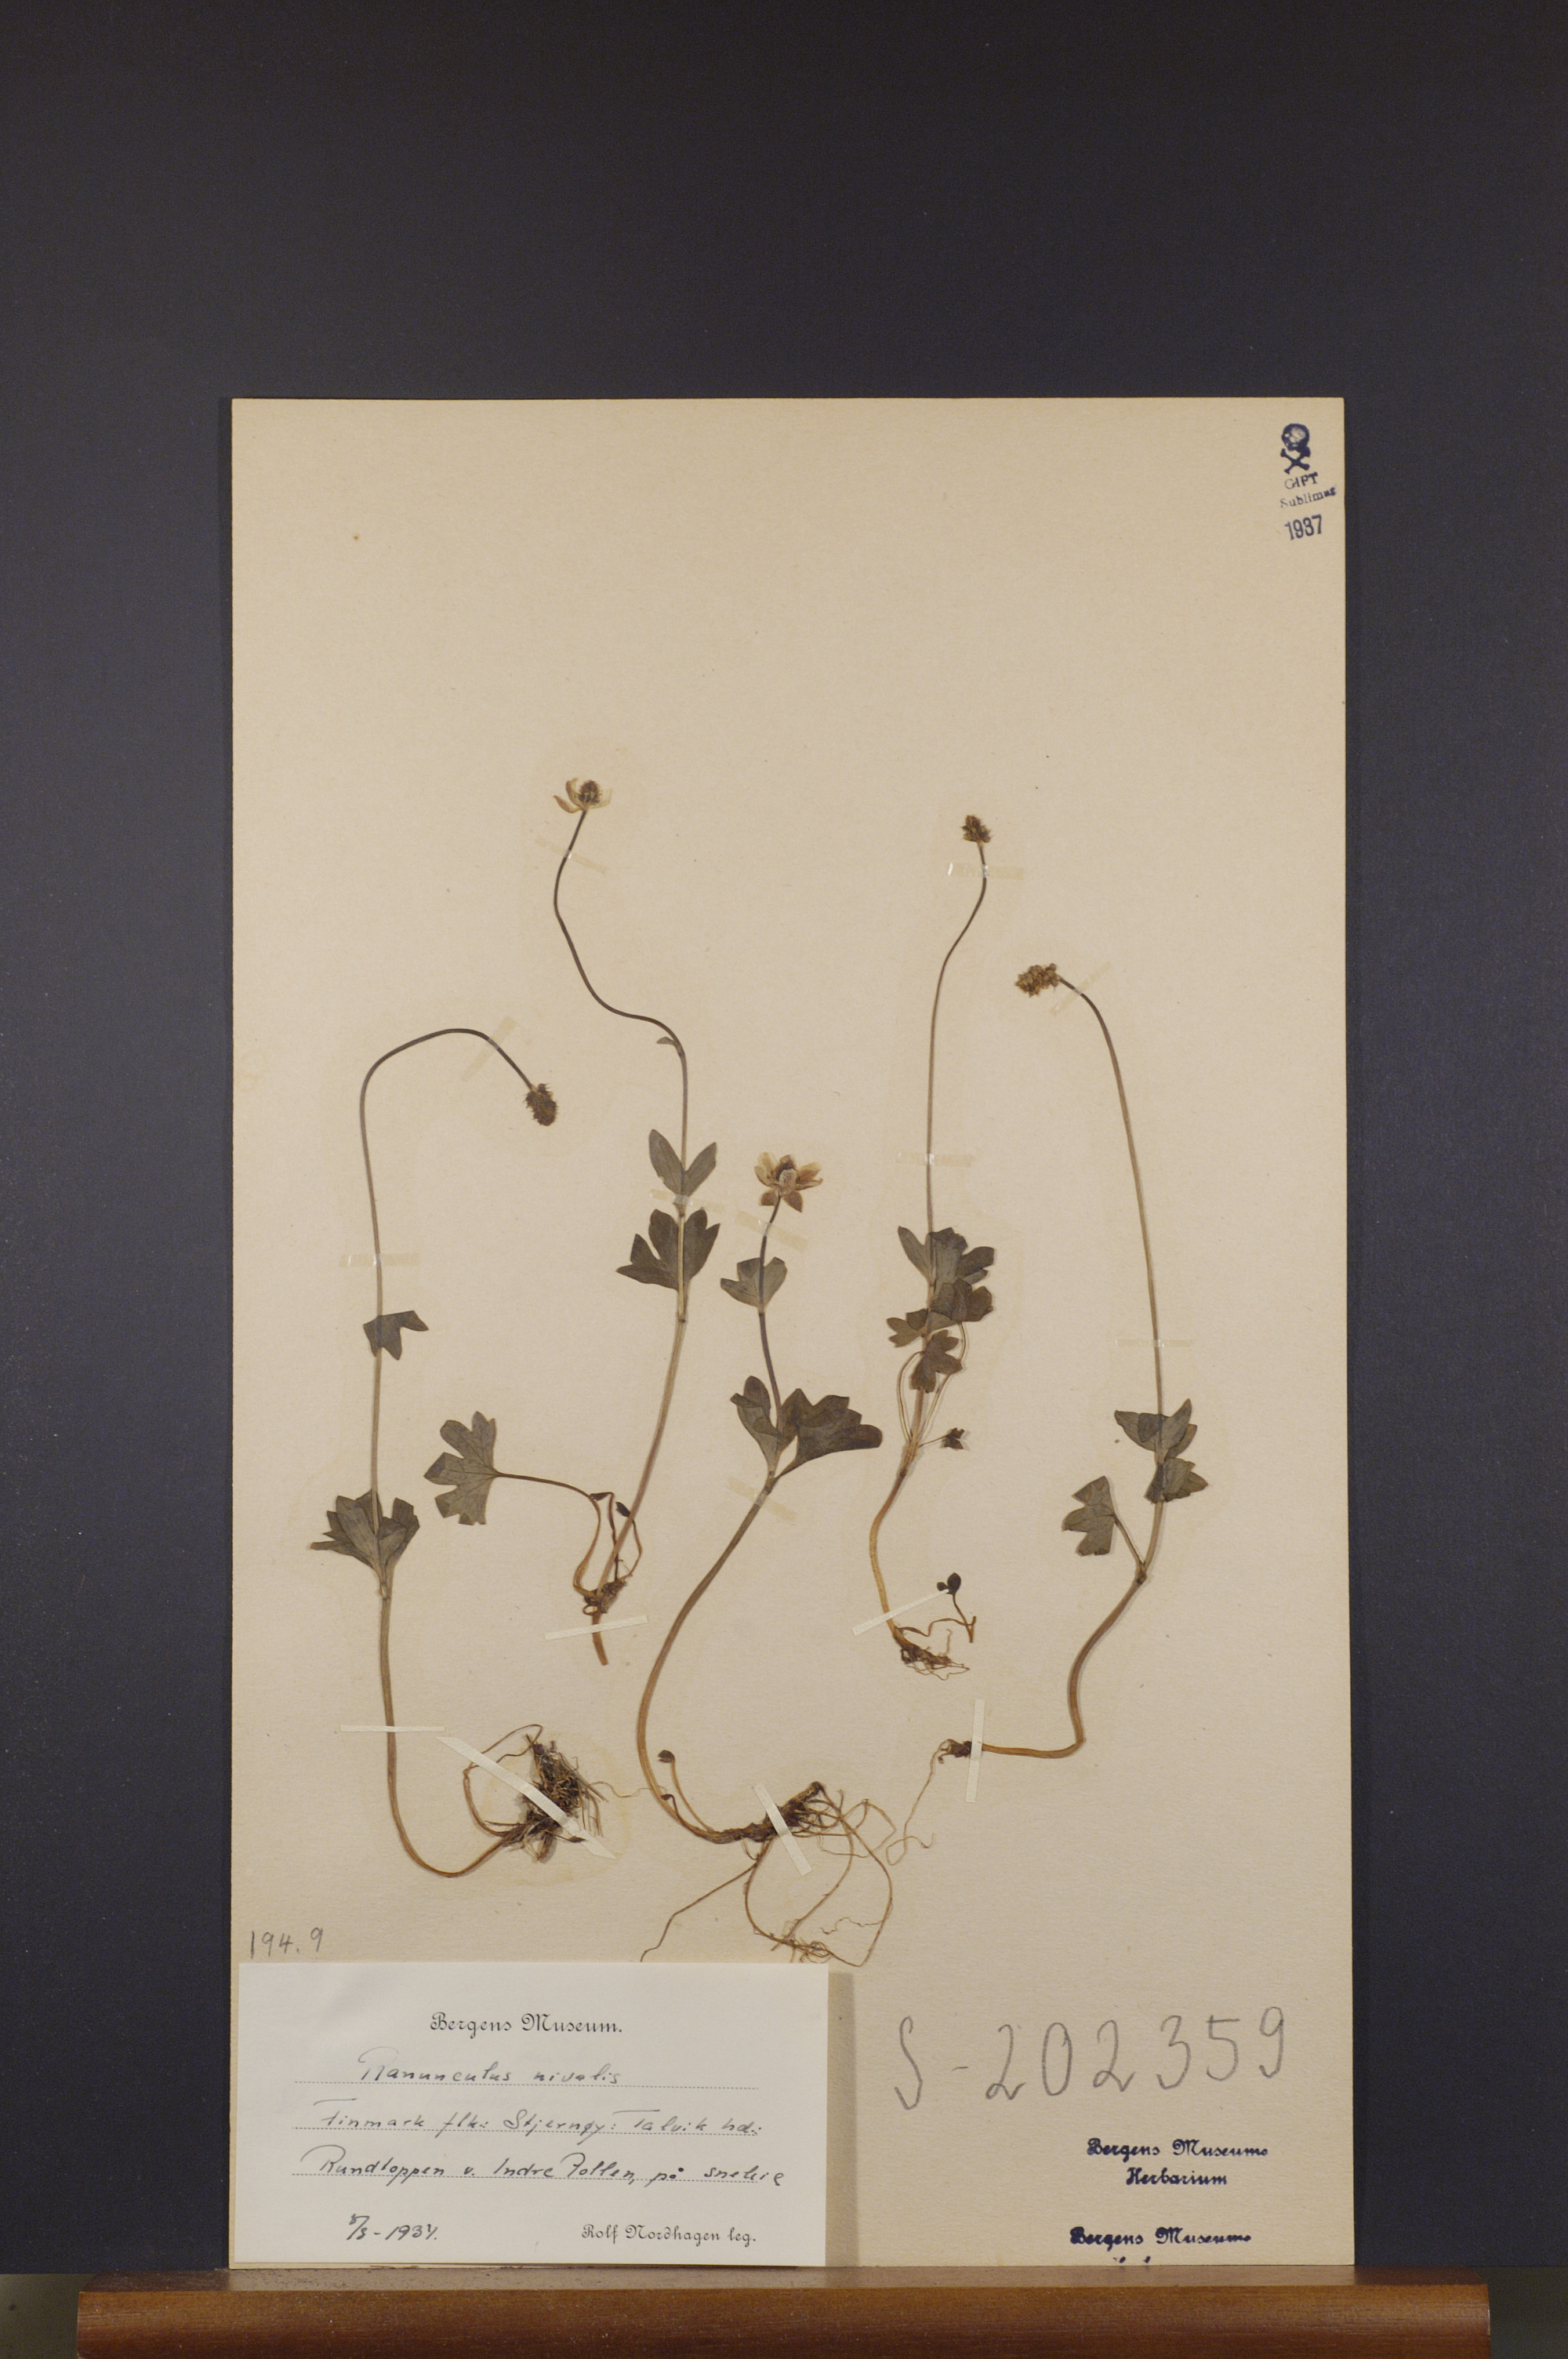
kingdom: Plantae
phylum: Tracheophyta
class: Magnoliopsida
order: Ranunculales
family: Ranunculaceae
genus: Ranunculus
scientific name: Ranunculus nivalis
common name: Snow buttercup
